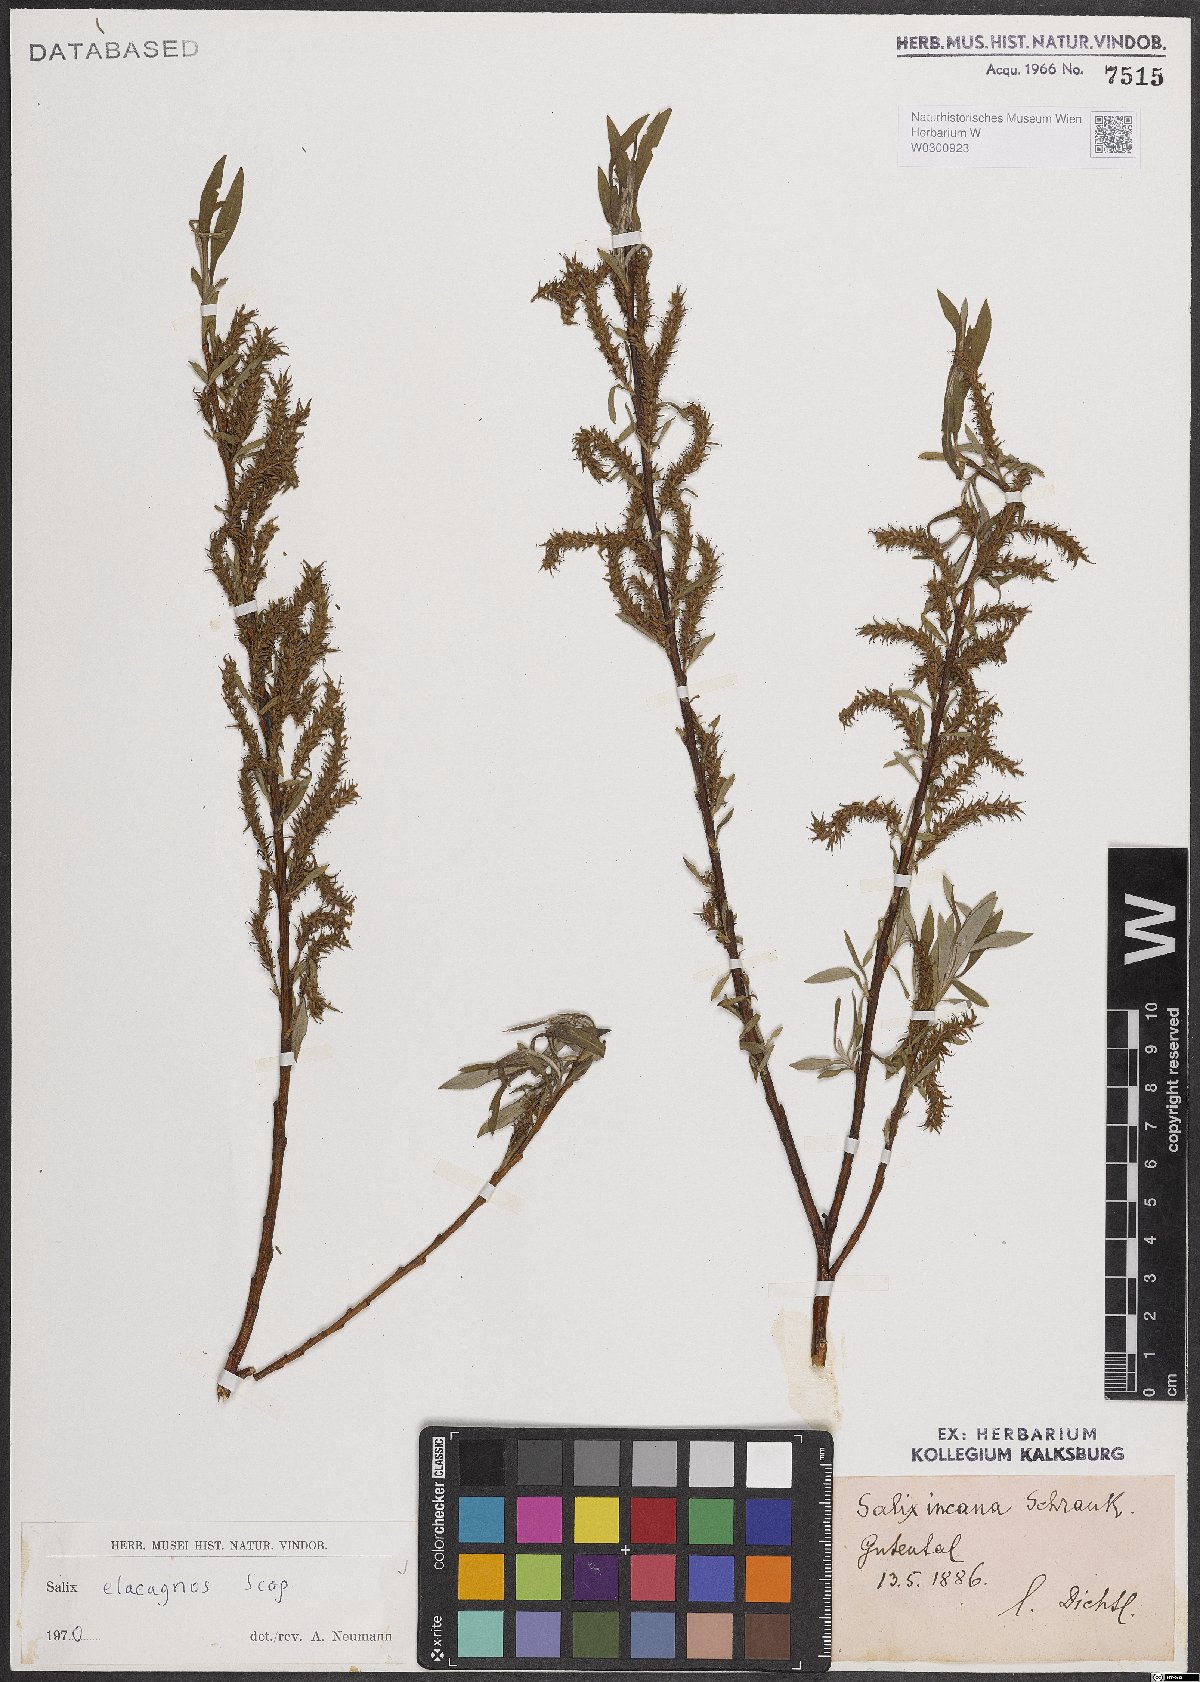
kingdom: Plantae
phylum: Tracheophyta
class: Magnoliopsida
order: Malpighiales
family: Salicaceae
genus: Salix
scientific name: Salix eleagnos
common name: Elaeagnus willow
